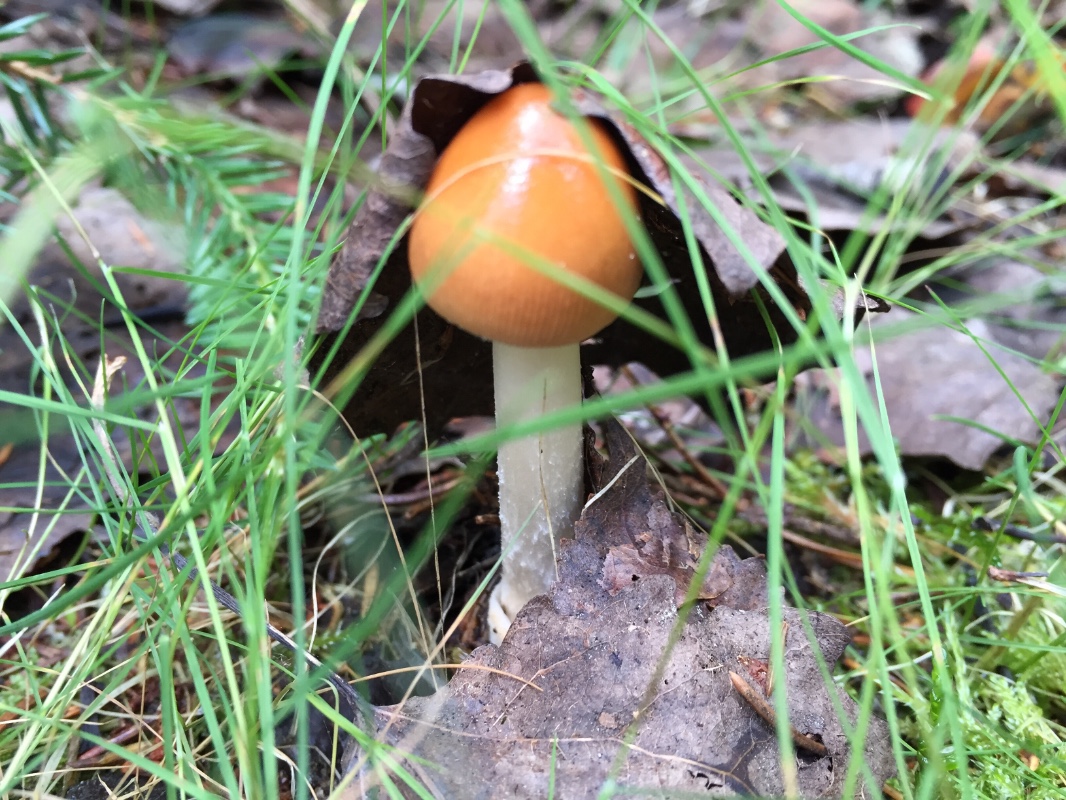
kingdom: Fungi
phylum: Basidiomycota
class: Agaricomycetes
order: Agaricales
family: Amanitaceae
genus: Amanita
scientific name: Amanita fulva
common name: brun kam-fluesvamp
